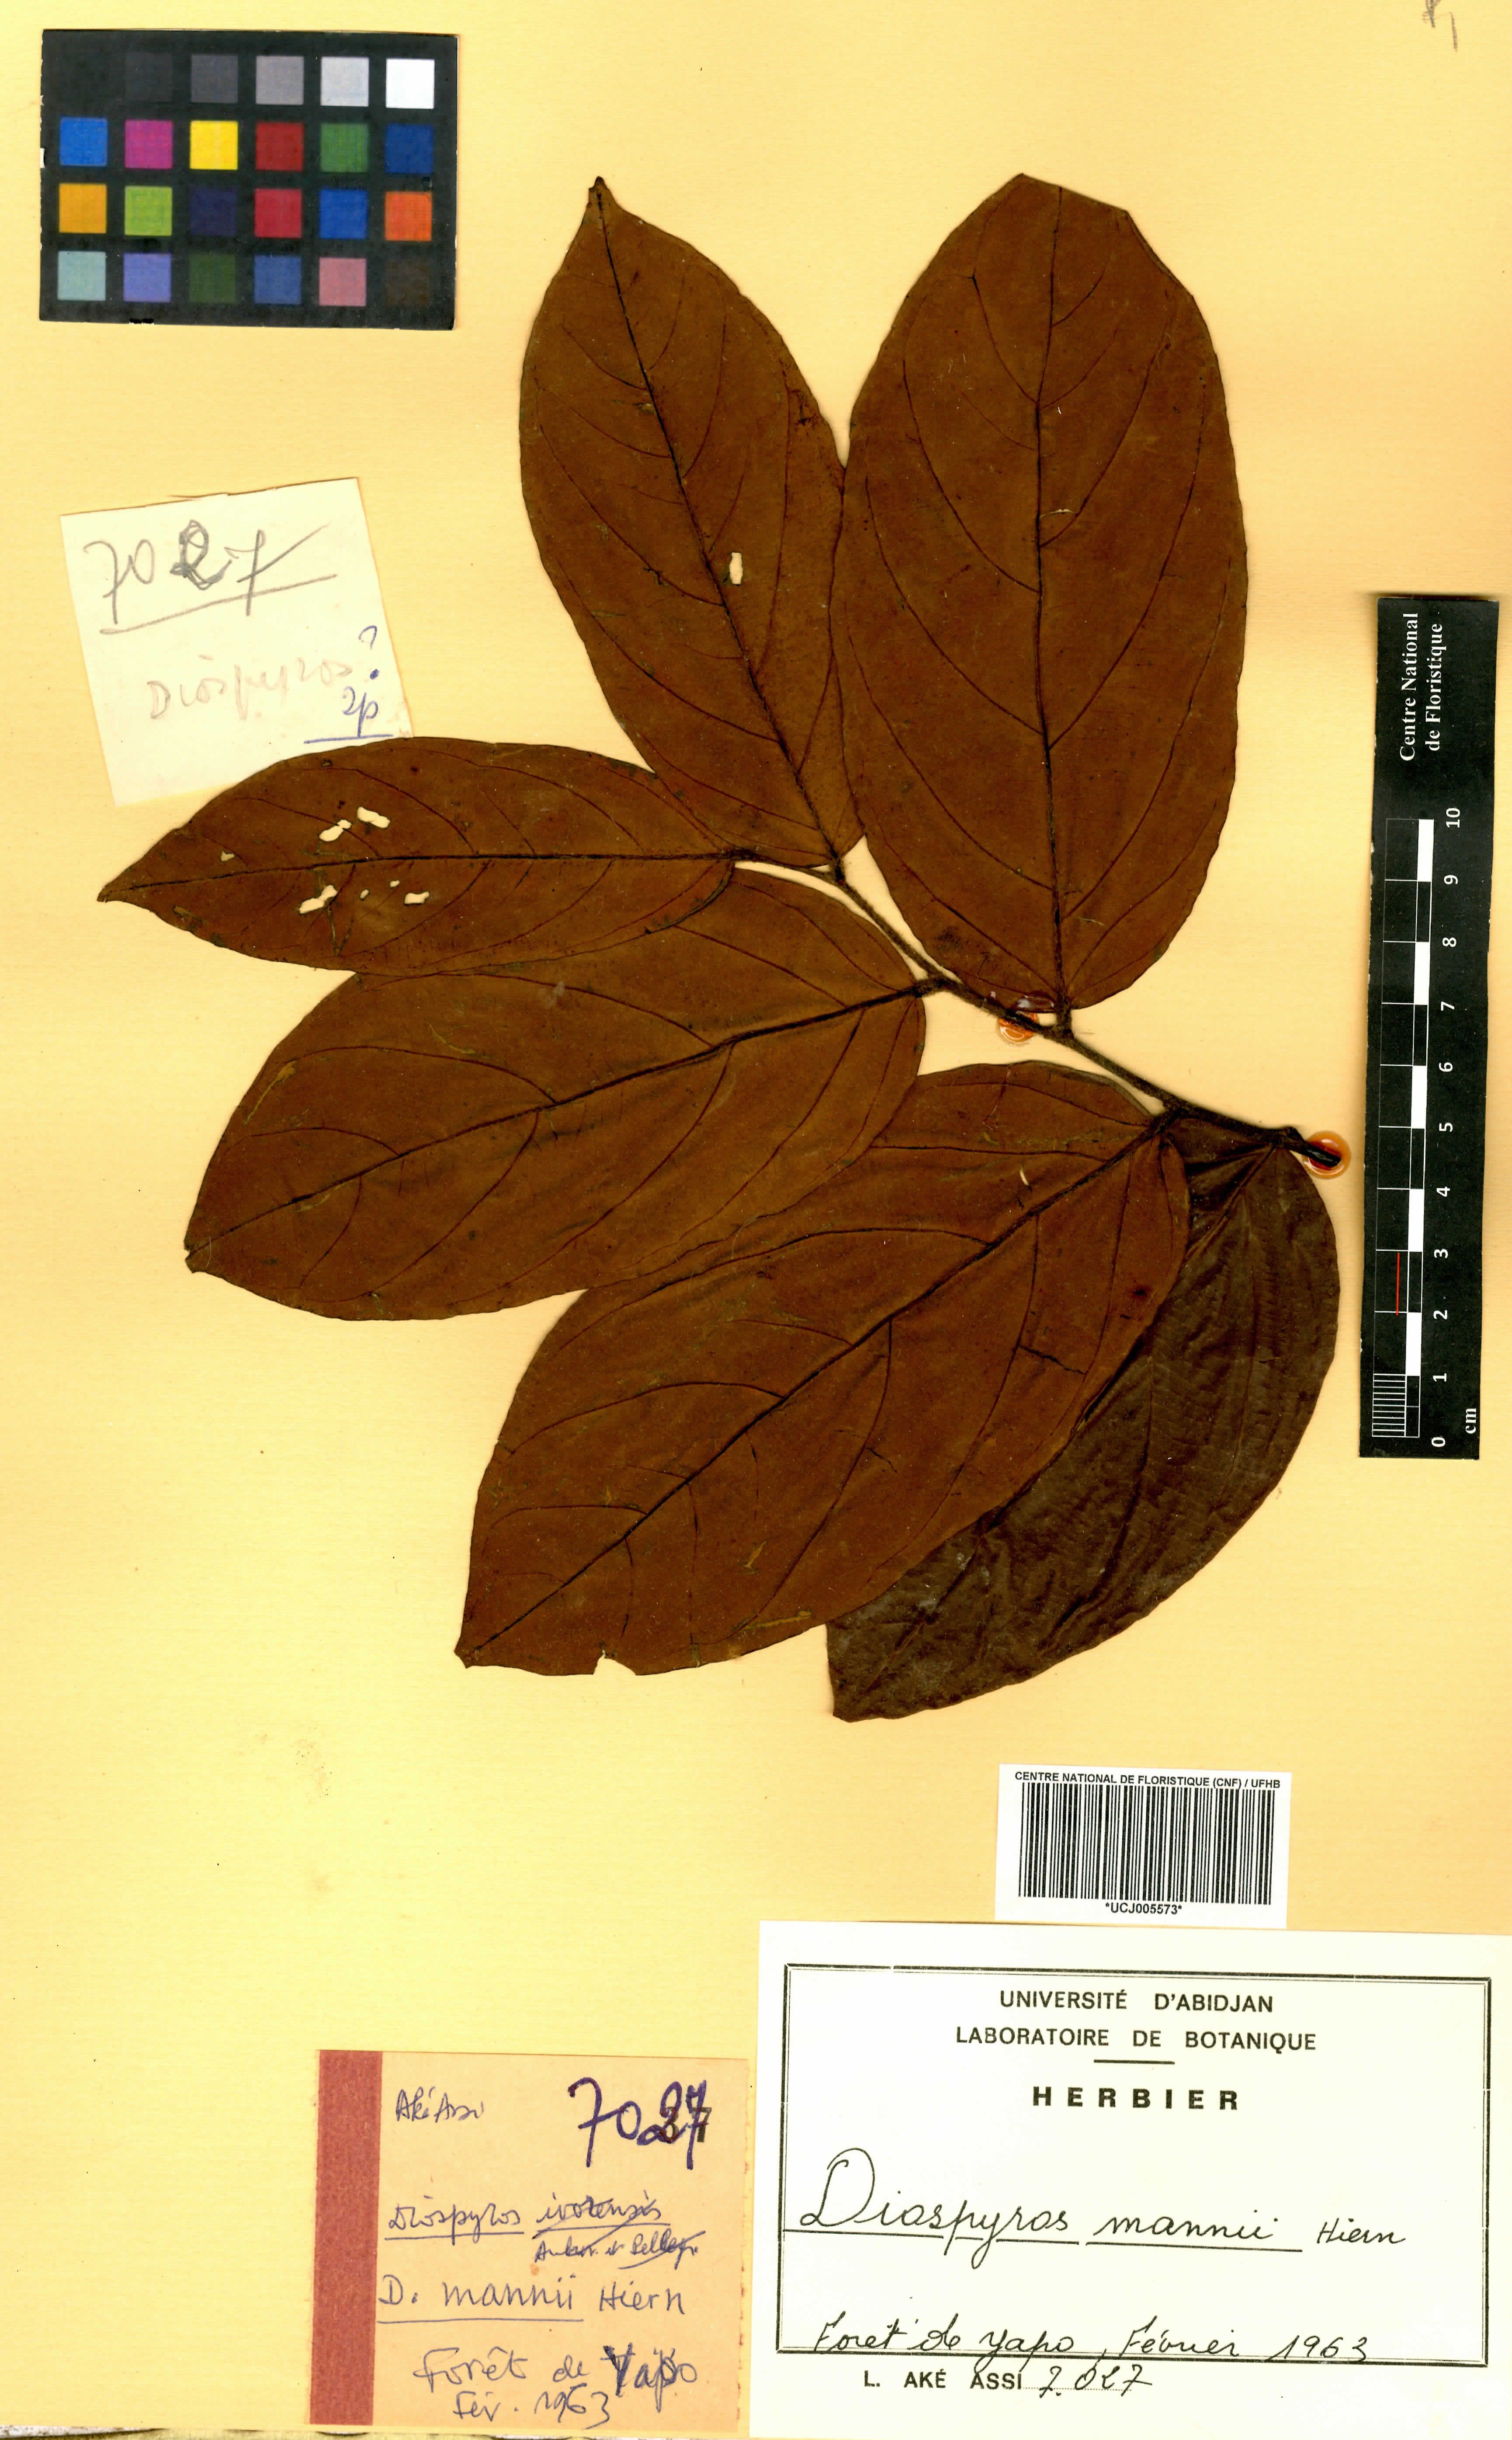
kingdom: Plantae
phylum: Tracheophyta
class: Magnoliopsida
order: Ericales
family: Ebenaceae
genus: Diospyros
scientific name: Diospyros mannii
